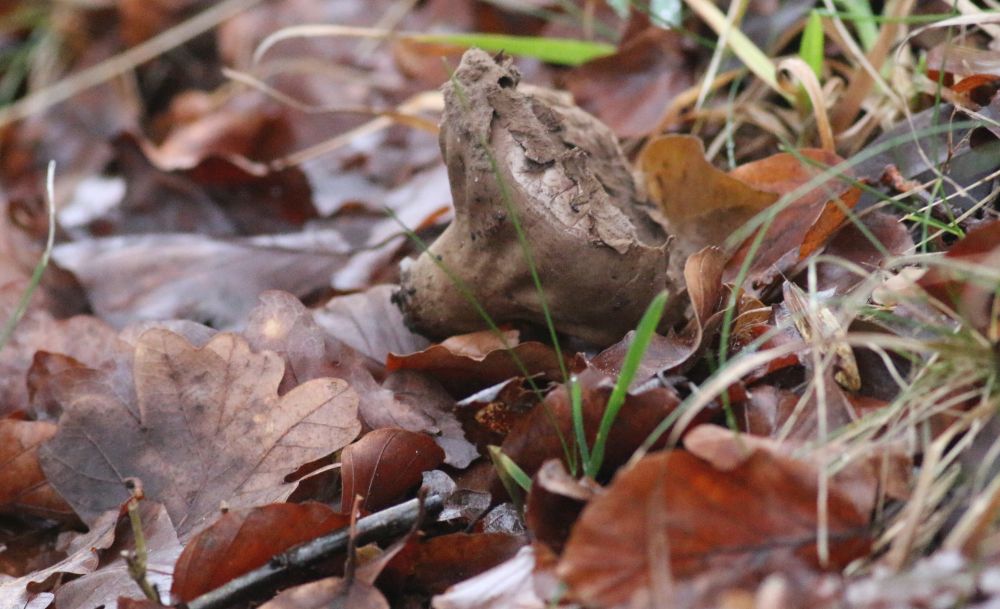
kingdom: Fungi
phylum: Basidiomycota
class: Agaricomycetes
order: Agaricales
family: Lycoperdaceae
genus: Lycoperdon
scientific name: Lycoperdon excipuliforme
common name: højstokket støvbold
